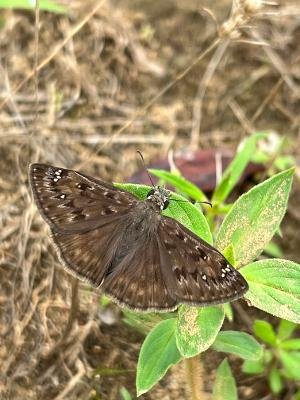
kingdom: Animalia
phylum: Arthropoda
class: Insecta
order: Lepidoptera
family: Hesperiidae
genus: Gesta
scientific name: Gesta
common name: Horace's Duskywing
